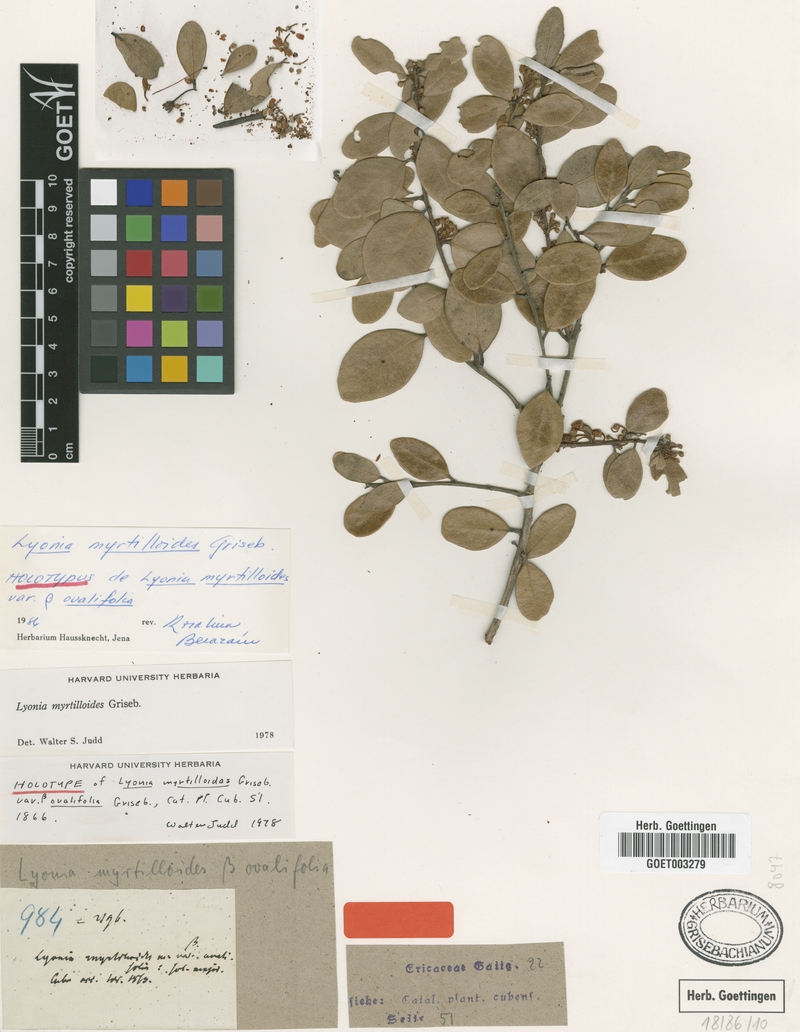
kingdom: Plantae
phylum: Tracheophyta
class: Magnoliopsida
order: Ericales
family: Ericaceae
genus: Lyonia
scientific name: Lyonia myrtilloides
